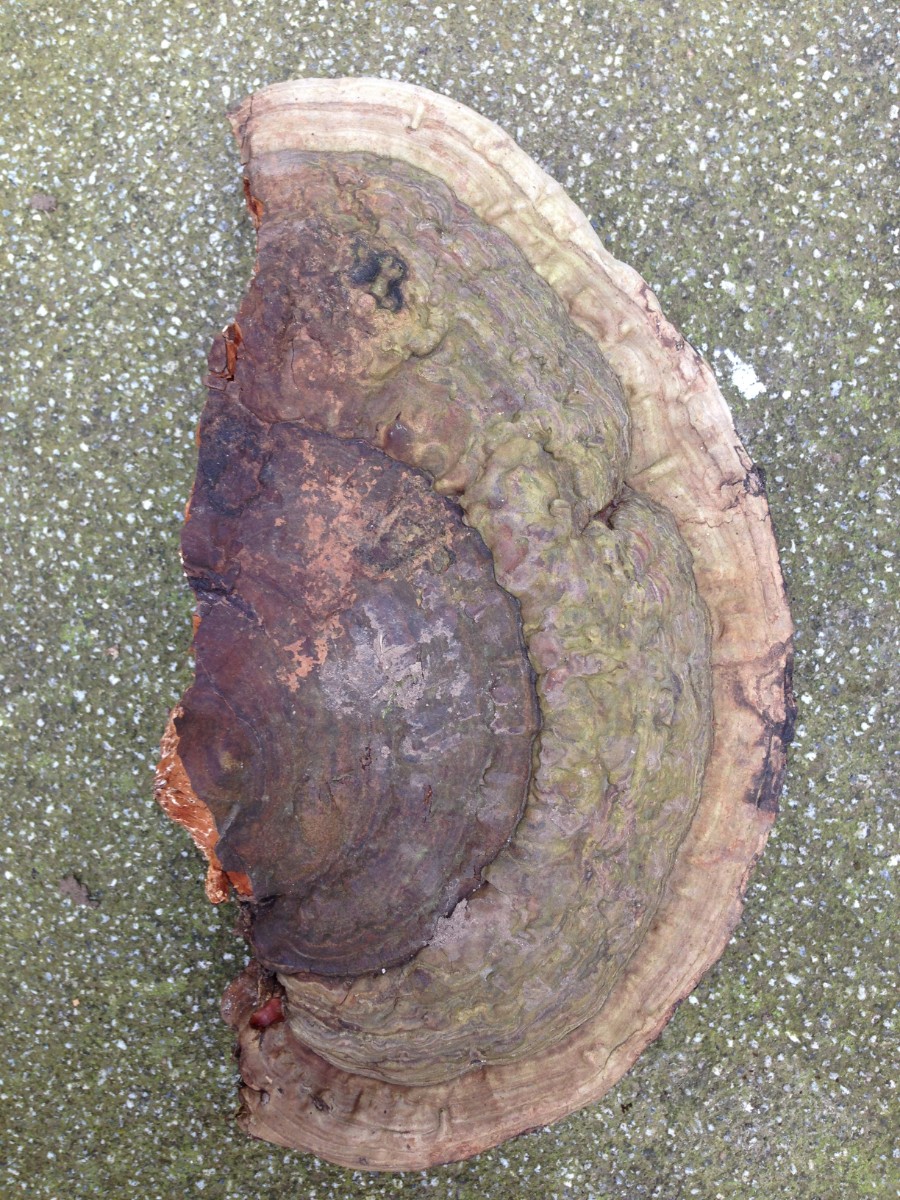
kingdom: Fungi
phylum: Basidiomycota
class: Agaricomycetes
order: Polyporales
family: Polyporaceae
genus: Ganoderma
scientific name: Ganoderma applanatum
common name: flad lakporesvamp
